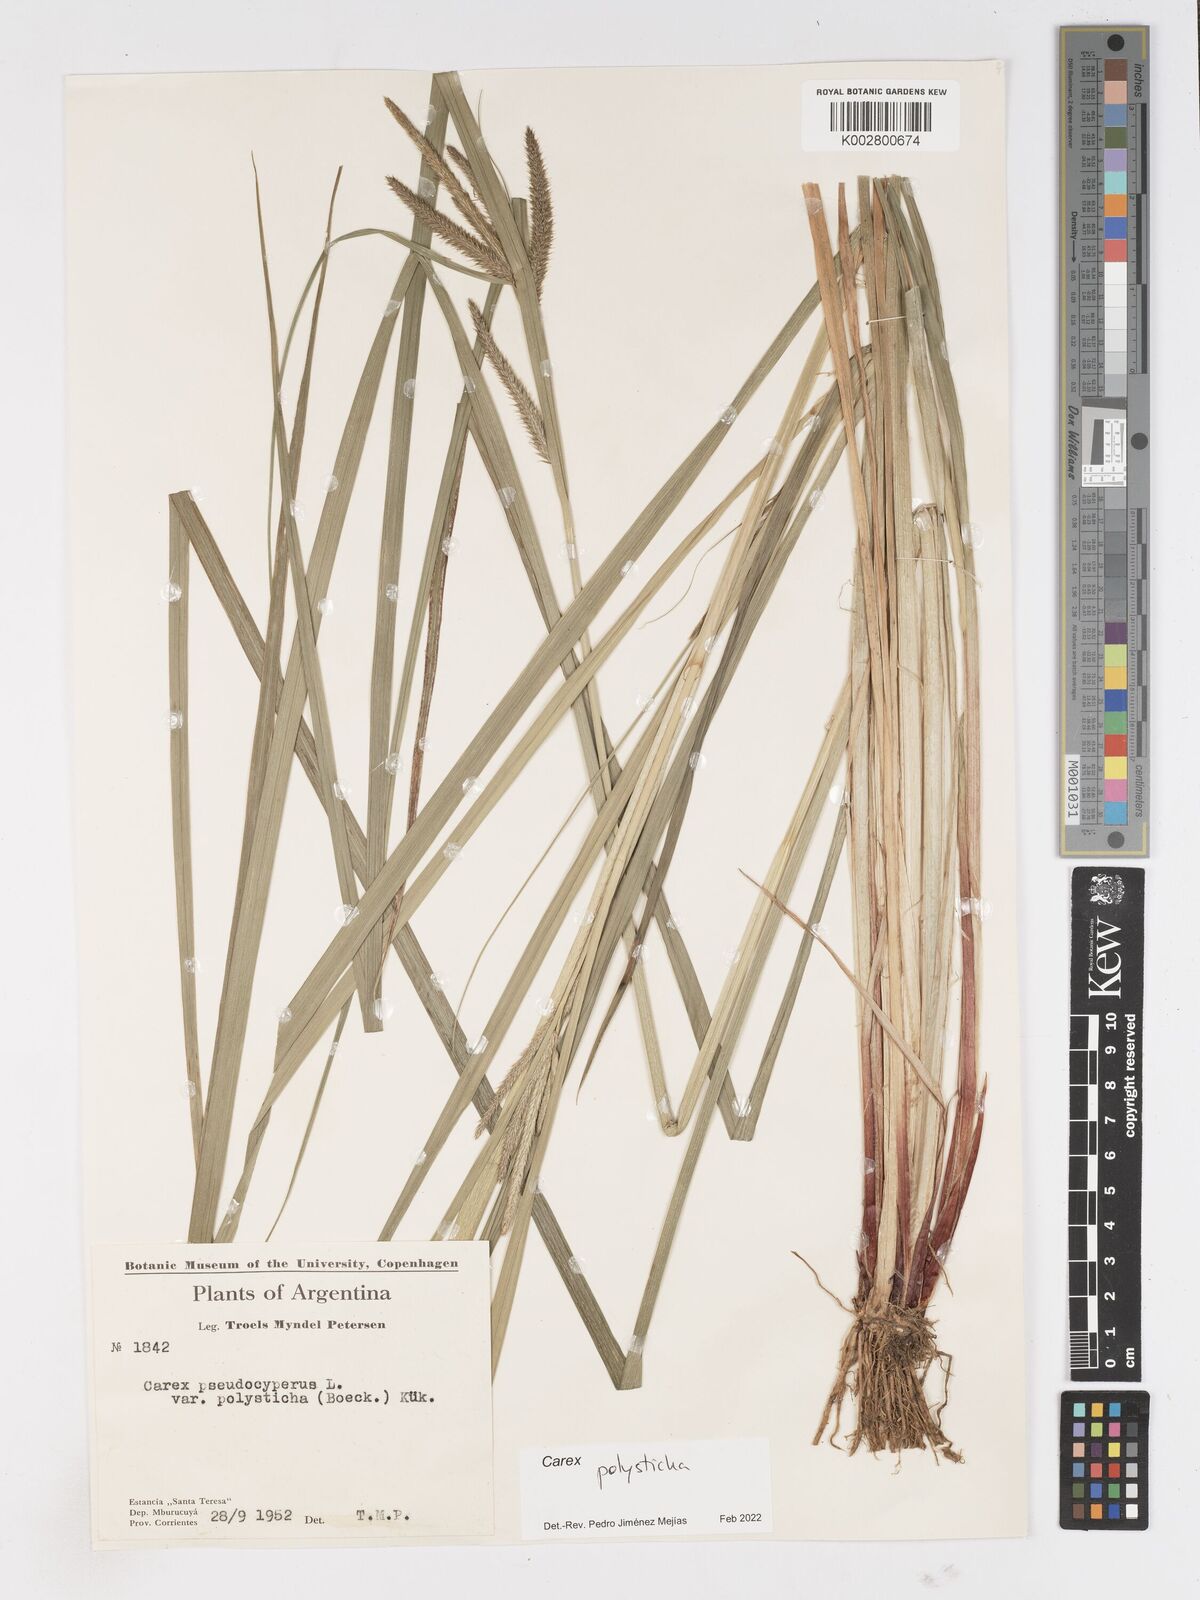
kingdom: Plantae
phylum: Tracheophyta
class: Liliopsida
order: Poales
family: Cyperaceae
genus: Carex
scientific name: Carex polysticha
